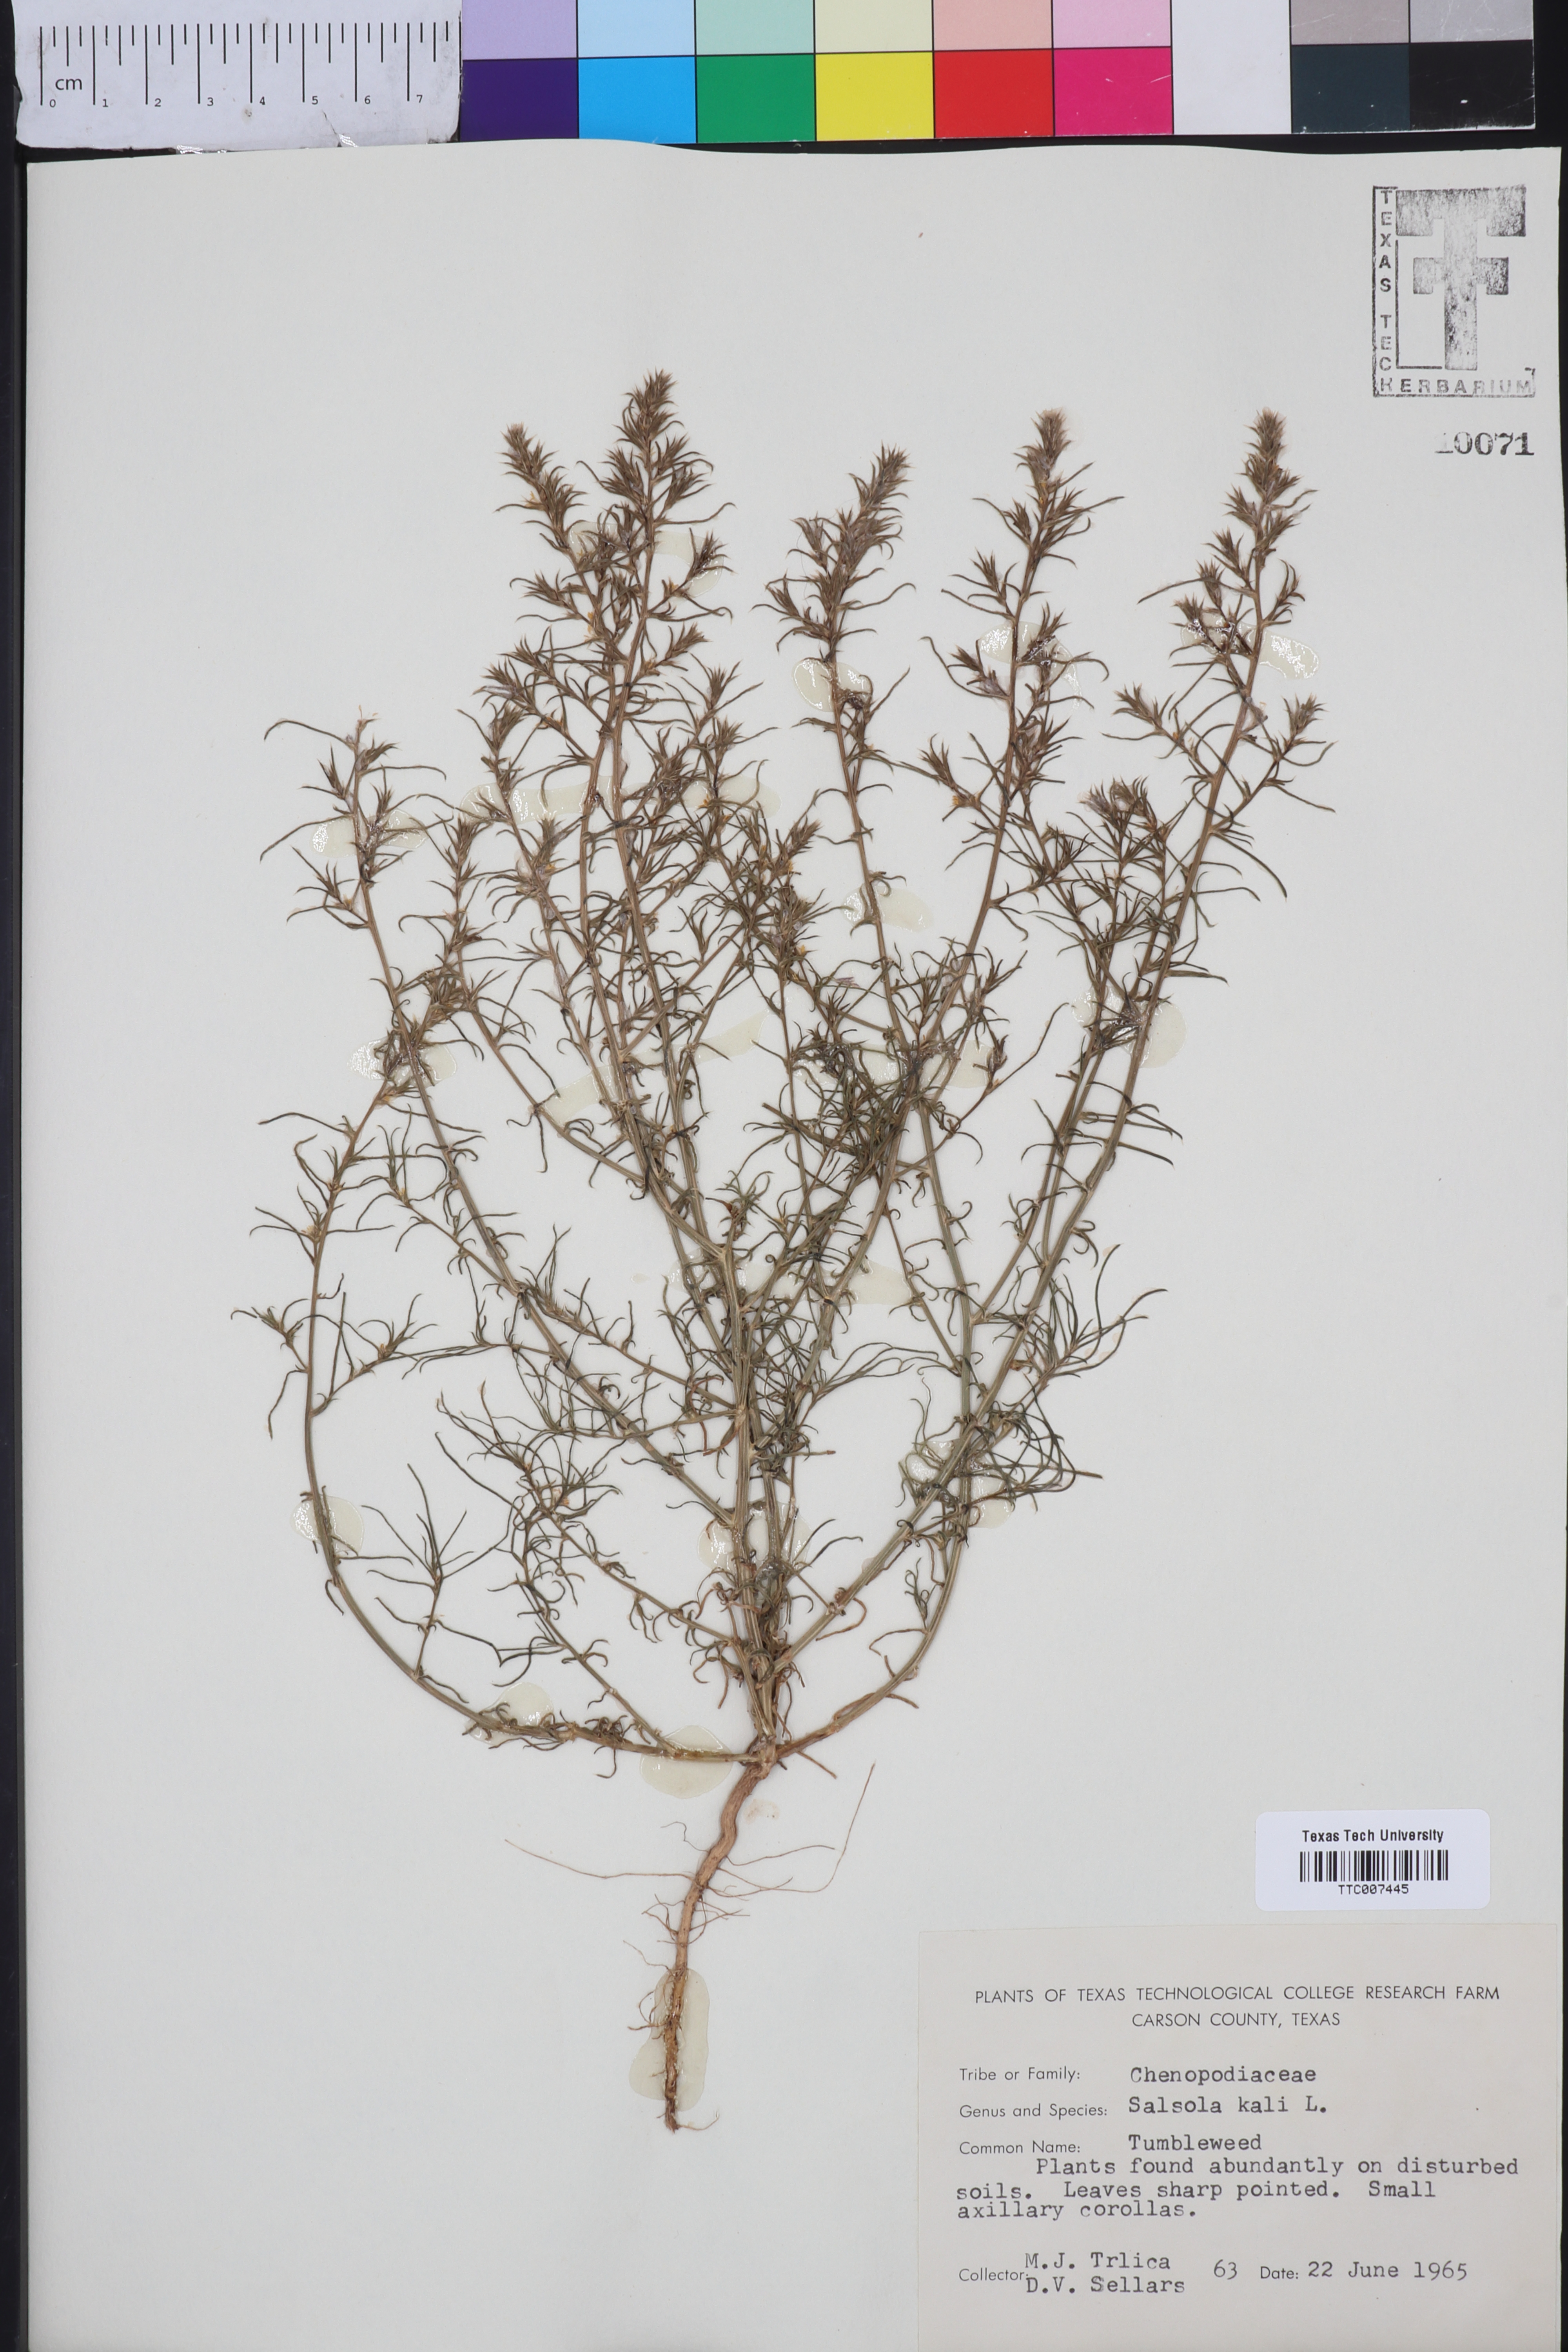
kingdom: Plantae
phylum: Tracheophyta
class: Magnoliopsida
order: Caryophyllales
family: Amaranthaceae
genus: Salsola
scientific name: Salsola kali
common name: Saltwort
